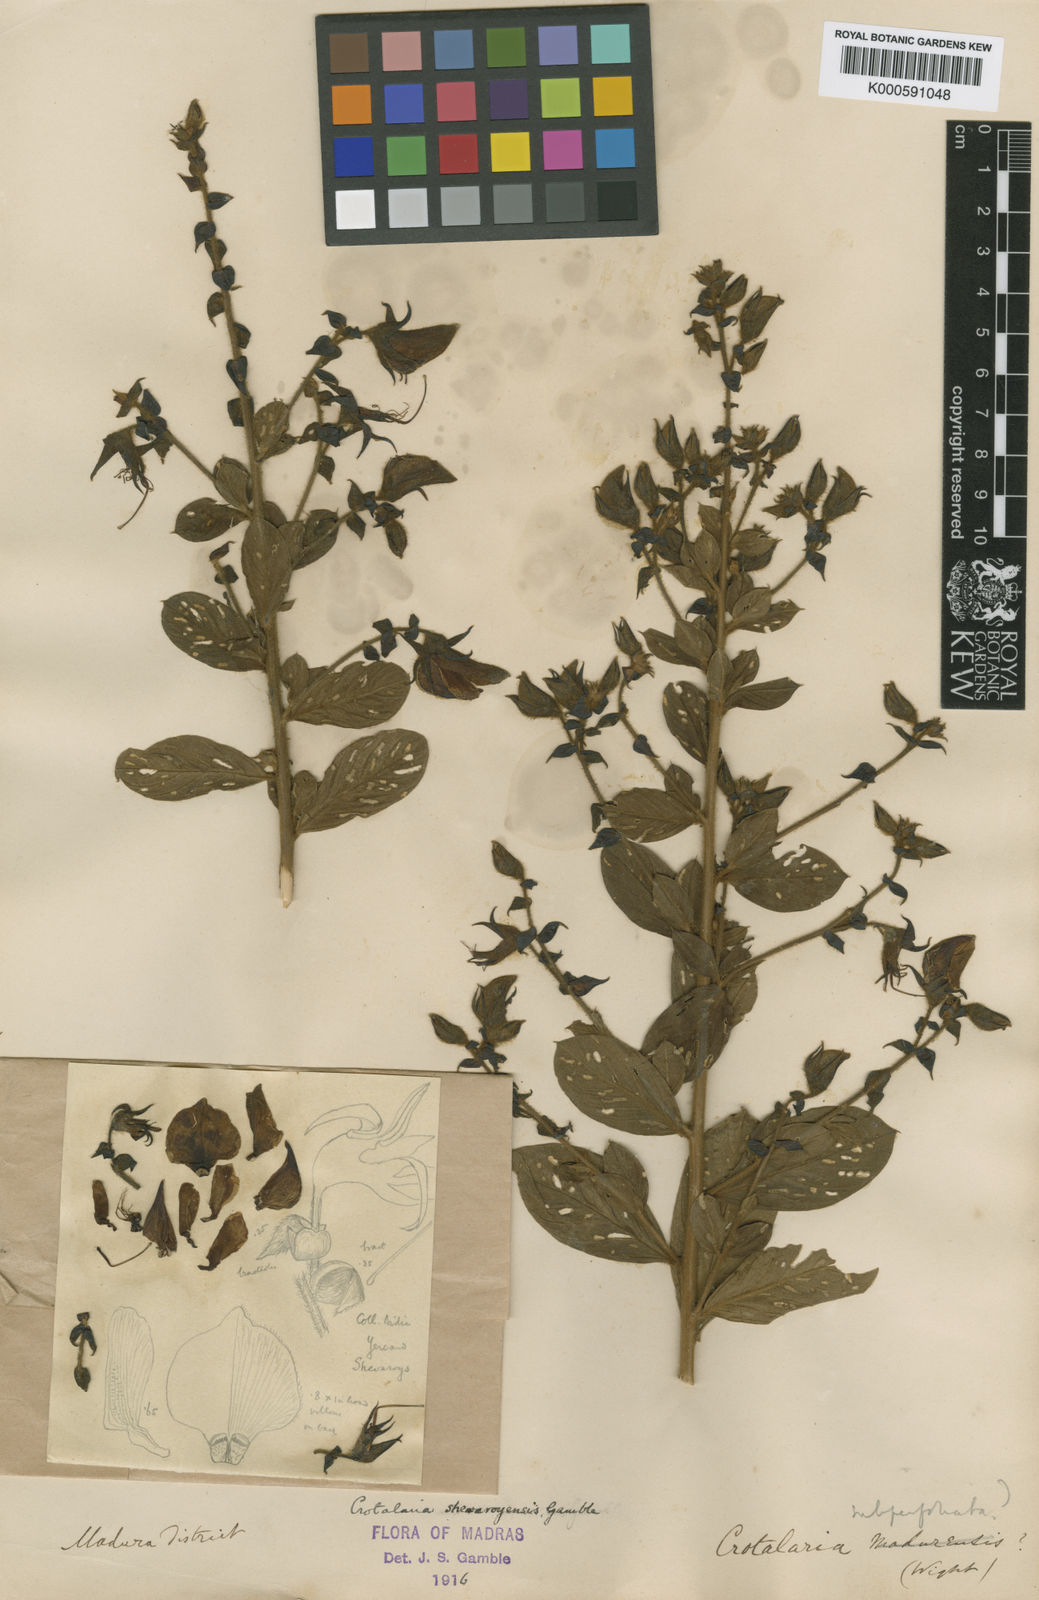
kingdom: Plantae
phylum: Tracheophyta
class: Magnoliopsida
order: Fabales
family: Fabaceae
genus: Crotalaria
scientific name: Crotalaria shevaroyensis
